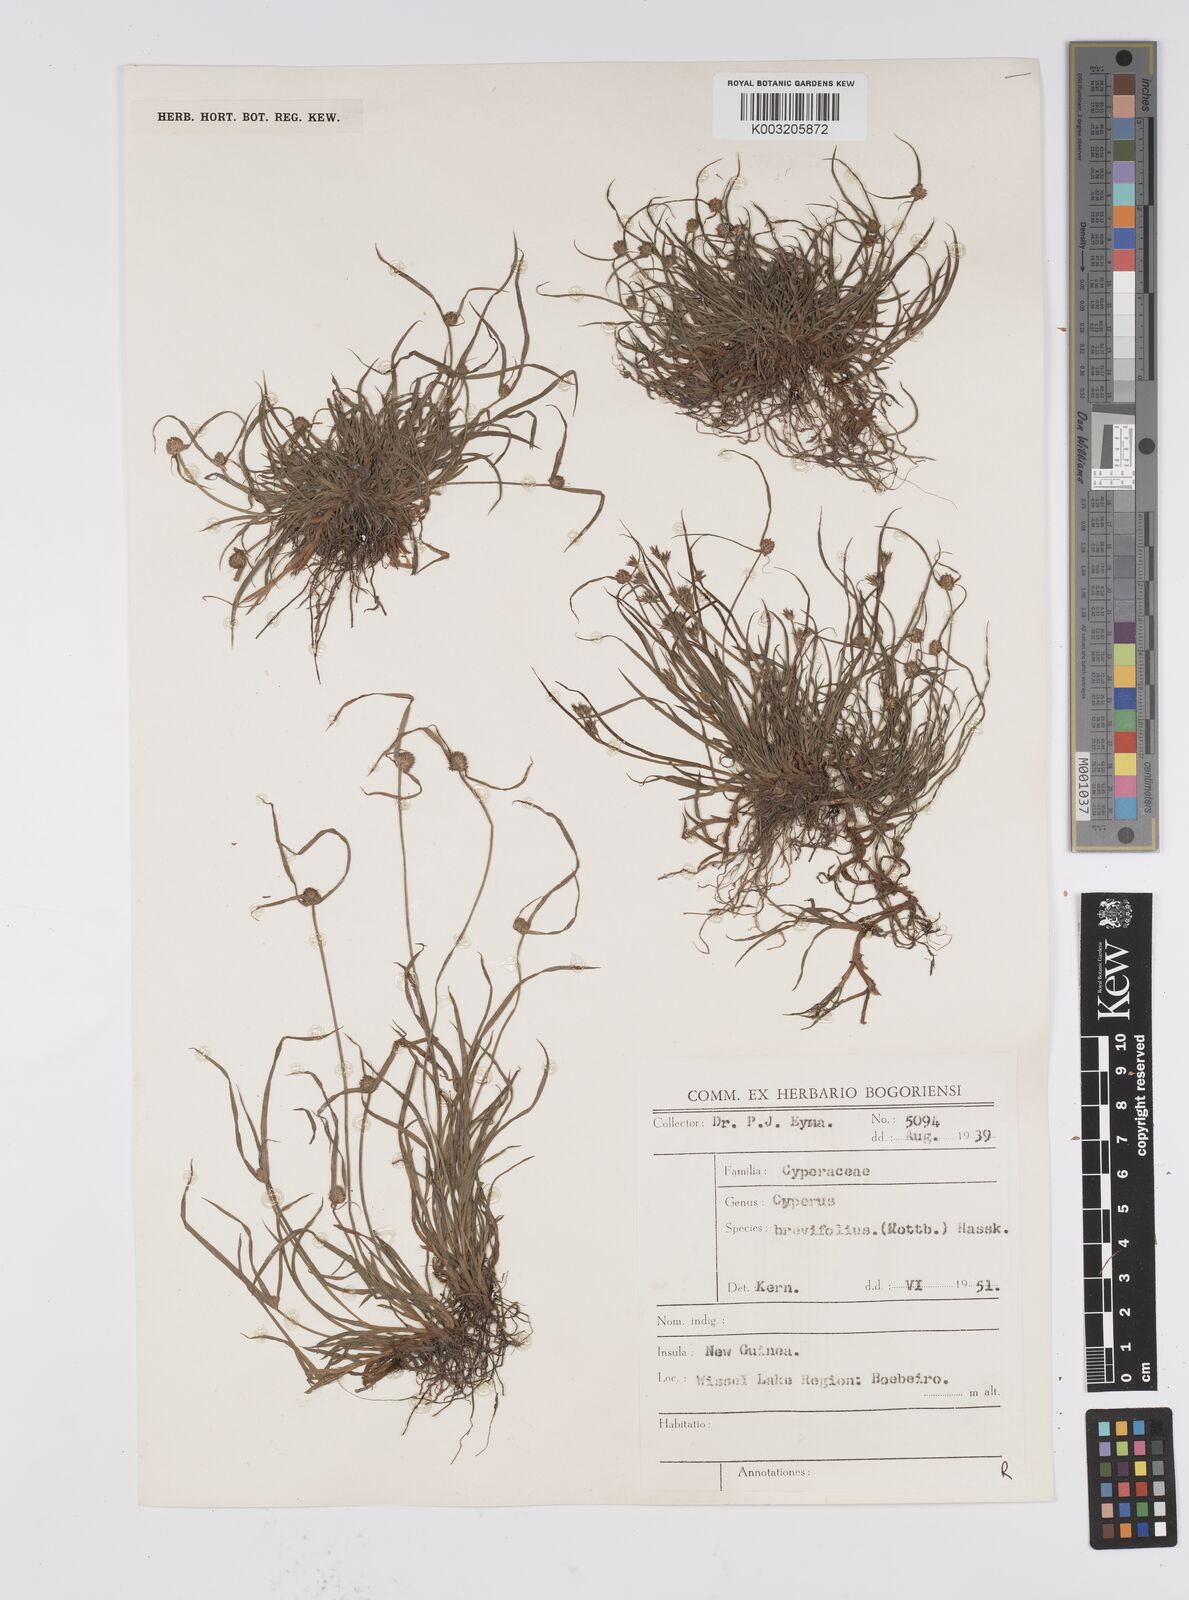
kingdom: Plantae
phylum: Tracheophyta
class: Liliopsida
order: Poales
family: Cyperaceae
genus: Cyperus
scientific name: Cyperus brevifolius
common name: Globe kyllinga
